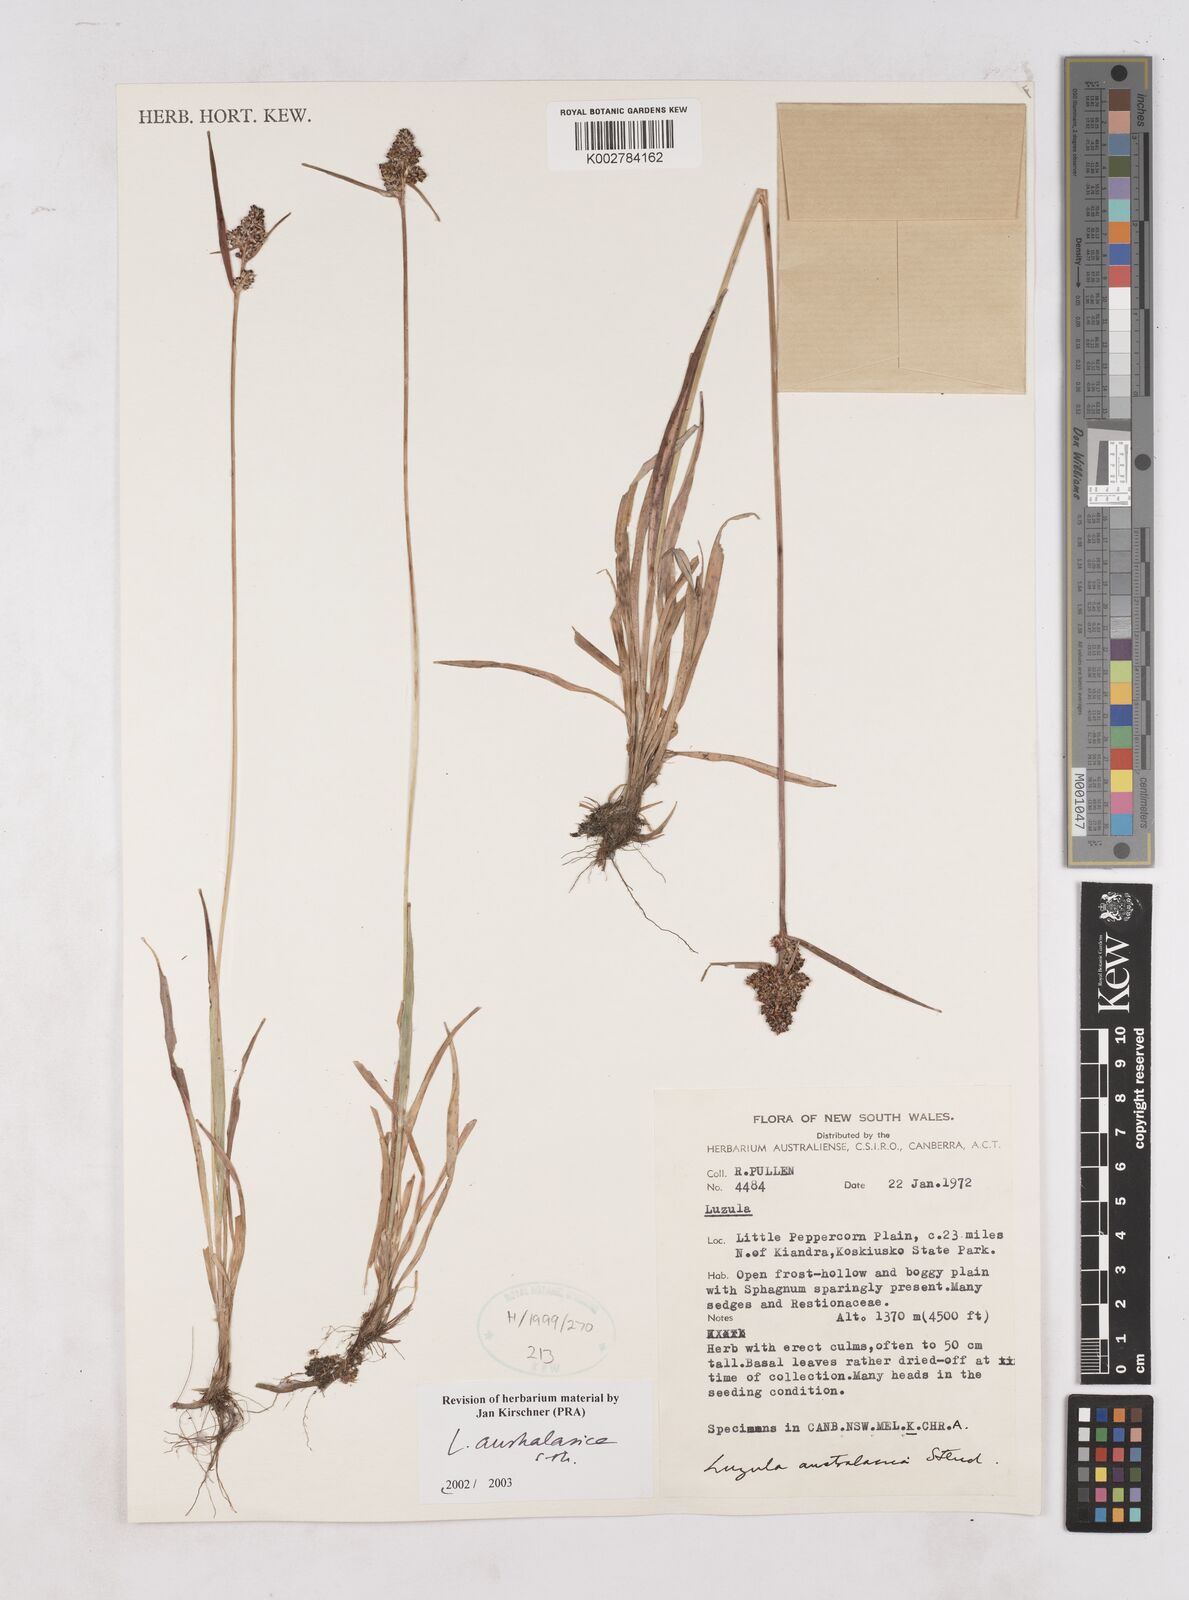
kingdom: Plantae
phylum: Tracheophyta
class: Liliopsida
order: Poales
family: Juncaceae
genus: Luzula
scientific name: Luzula australasica
